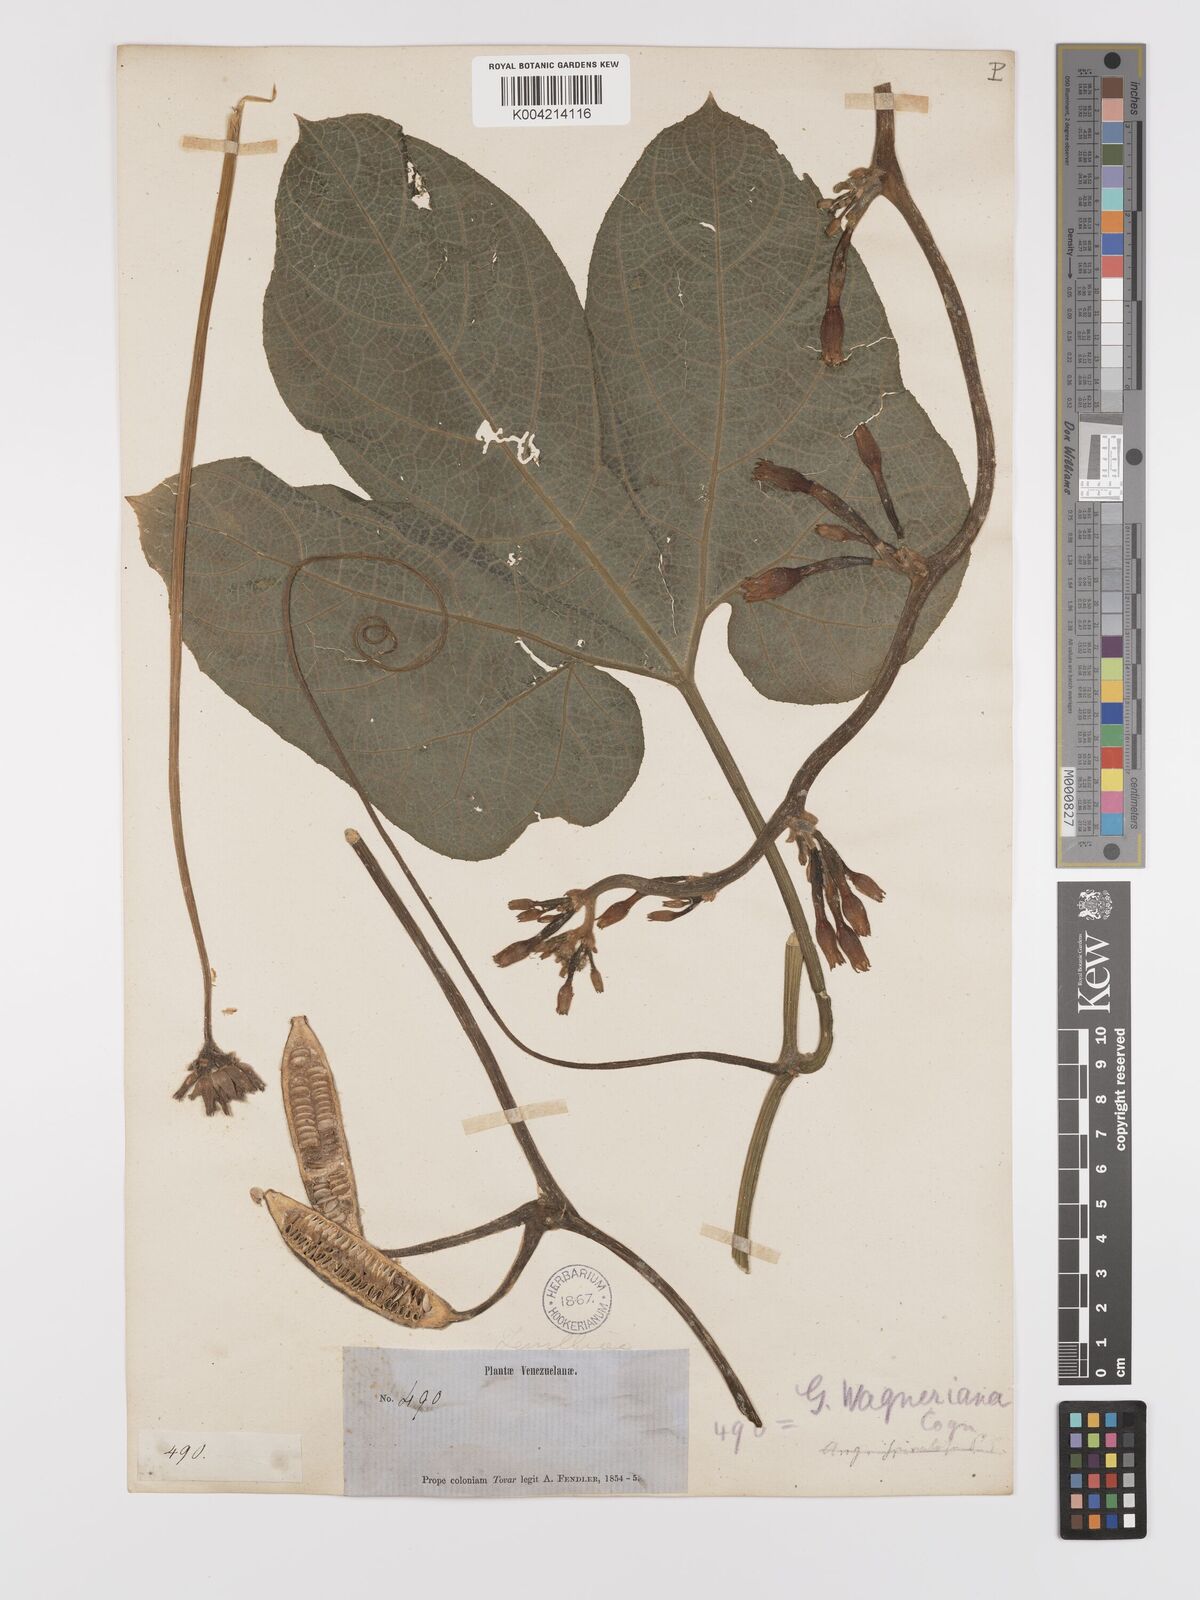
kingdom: Plantae
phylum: Tracheophyta
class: Magnoliopsida
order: Cucurbitales
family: Cucurbitaceae
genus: Gurania
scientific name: Gurania lobata
